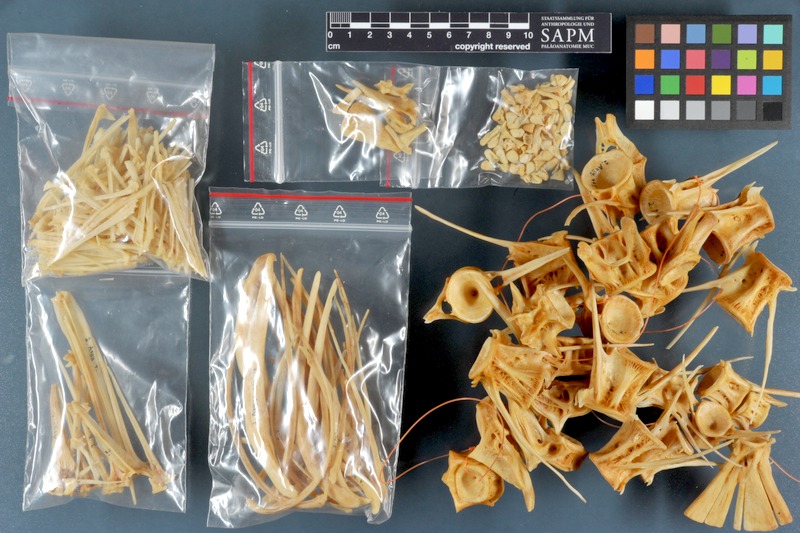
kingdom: Animalia
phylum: Chordata
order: Perciformes
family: Sciaenidae
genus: Argyrosomus
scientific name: Argyrosomus regius
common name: Meagre
